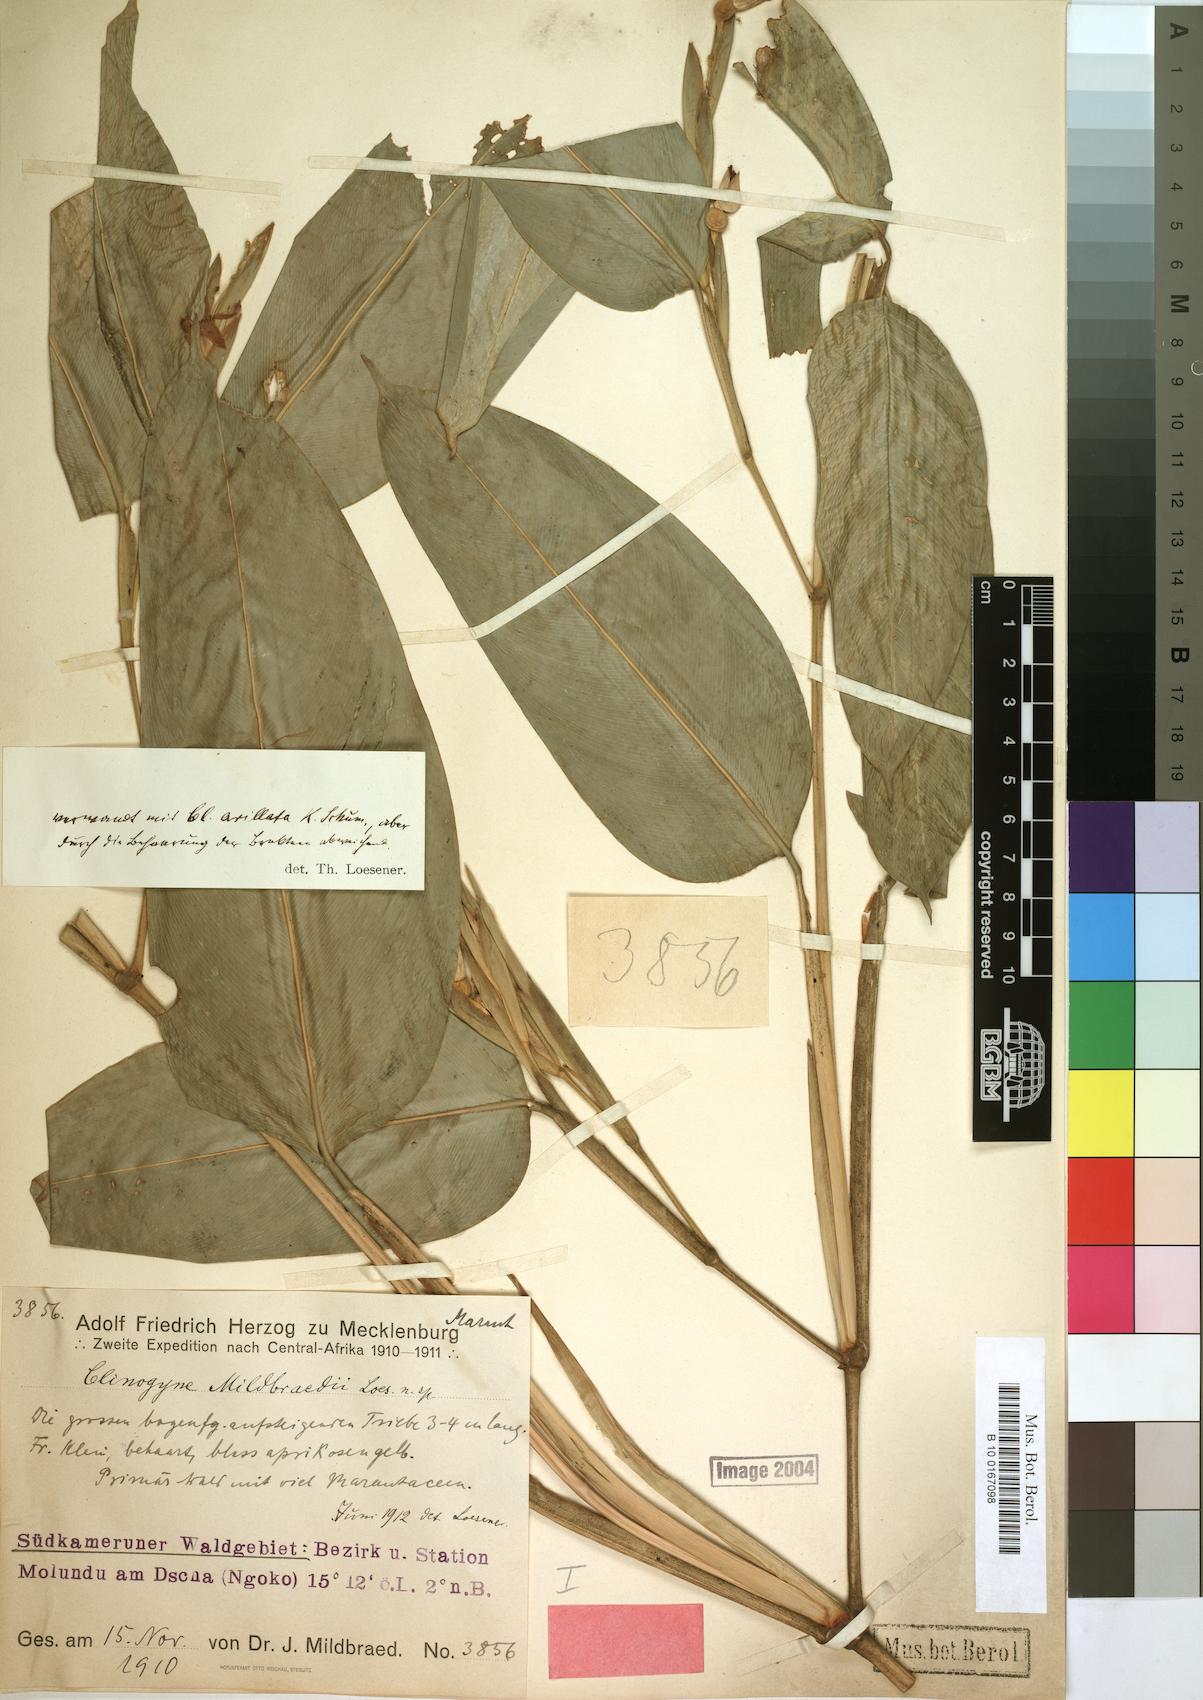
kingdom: Plantae
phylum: Tracheophyta
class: Liliopsida
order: Zingiberales
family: Marantaceae
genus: Marantochloa
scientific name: Marantochloa mildbraedii
